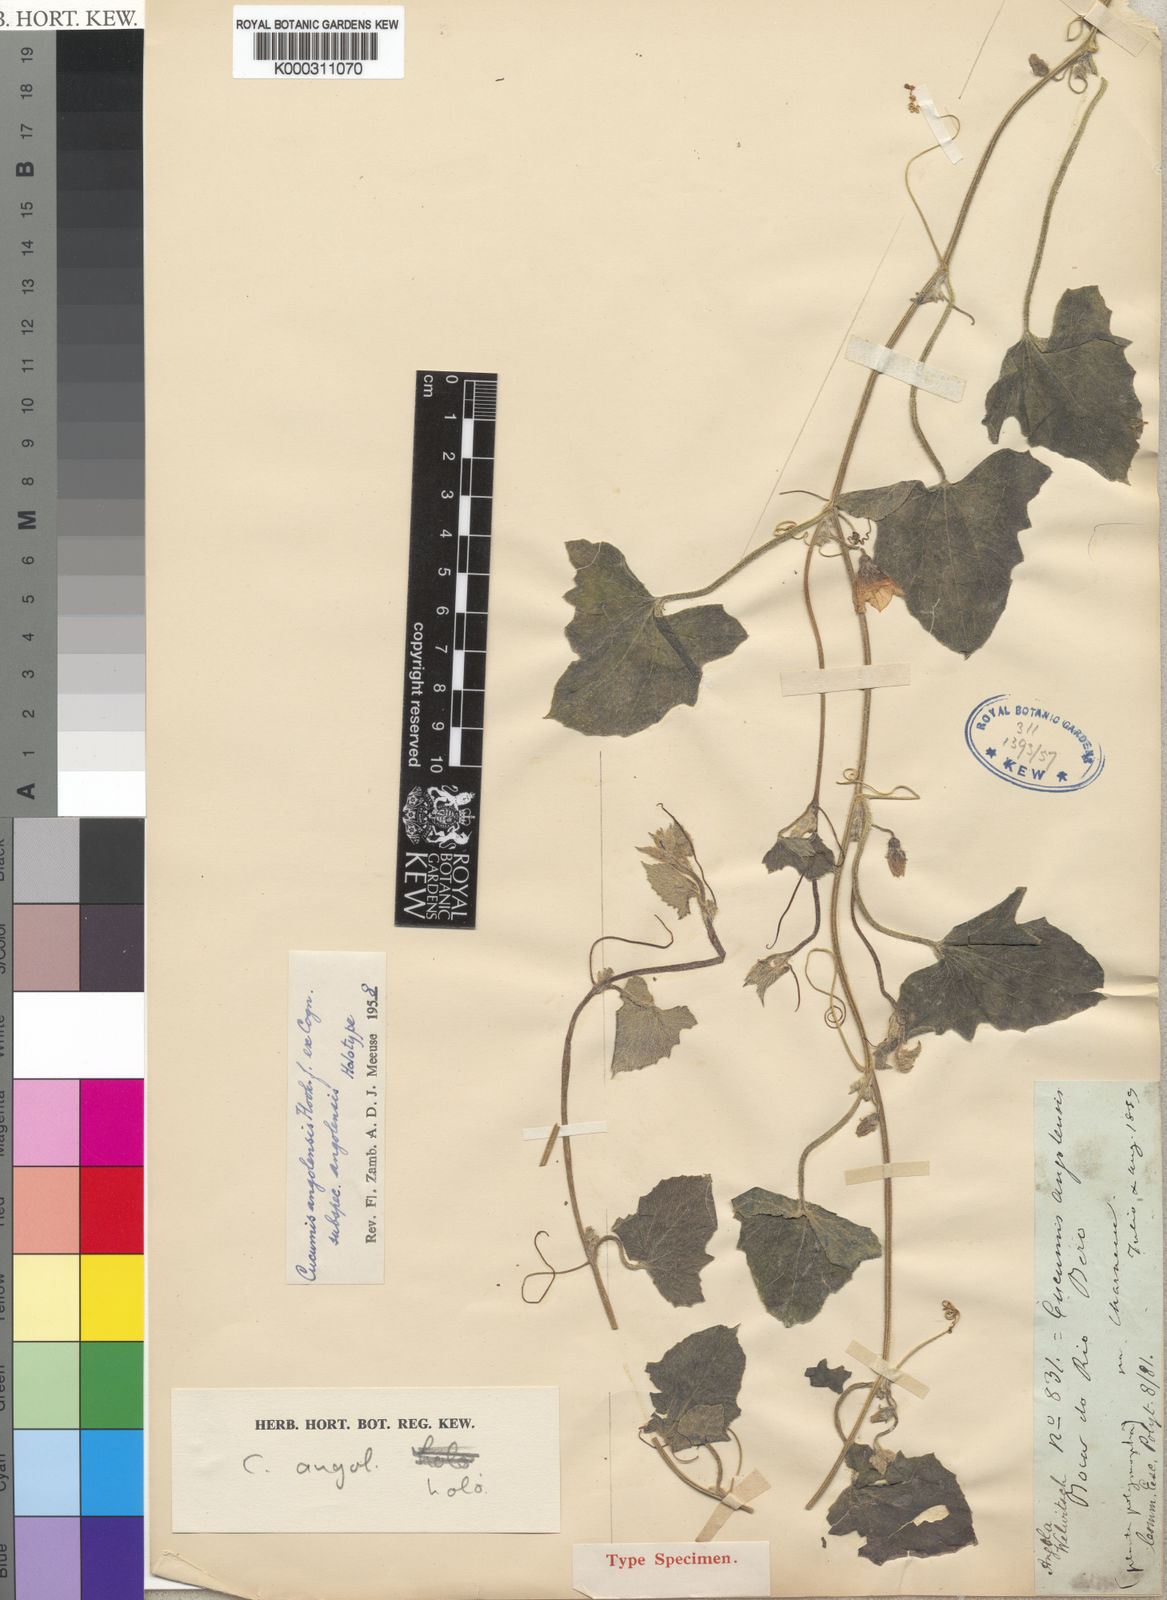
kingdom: Plantae
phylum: Tracheophyta
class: Magnoliopsida
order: Cucurbitales
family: Cucurbitaceae
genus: Cucumis
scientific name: Cucumis sagittatus
